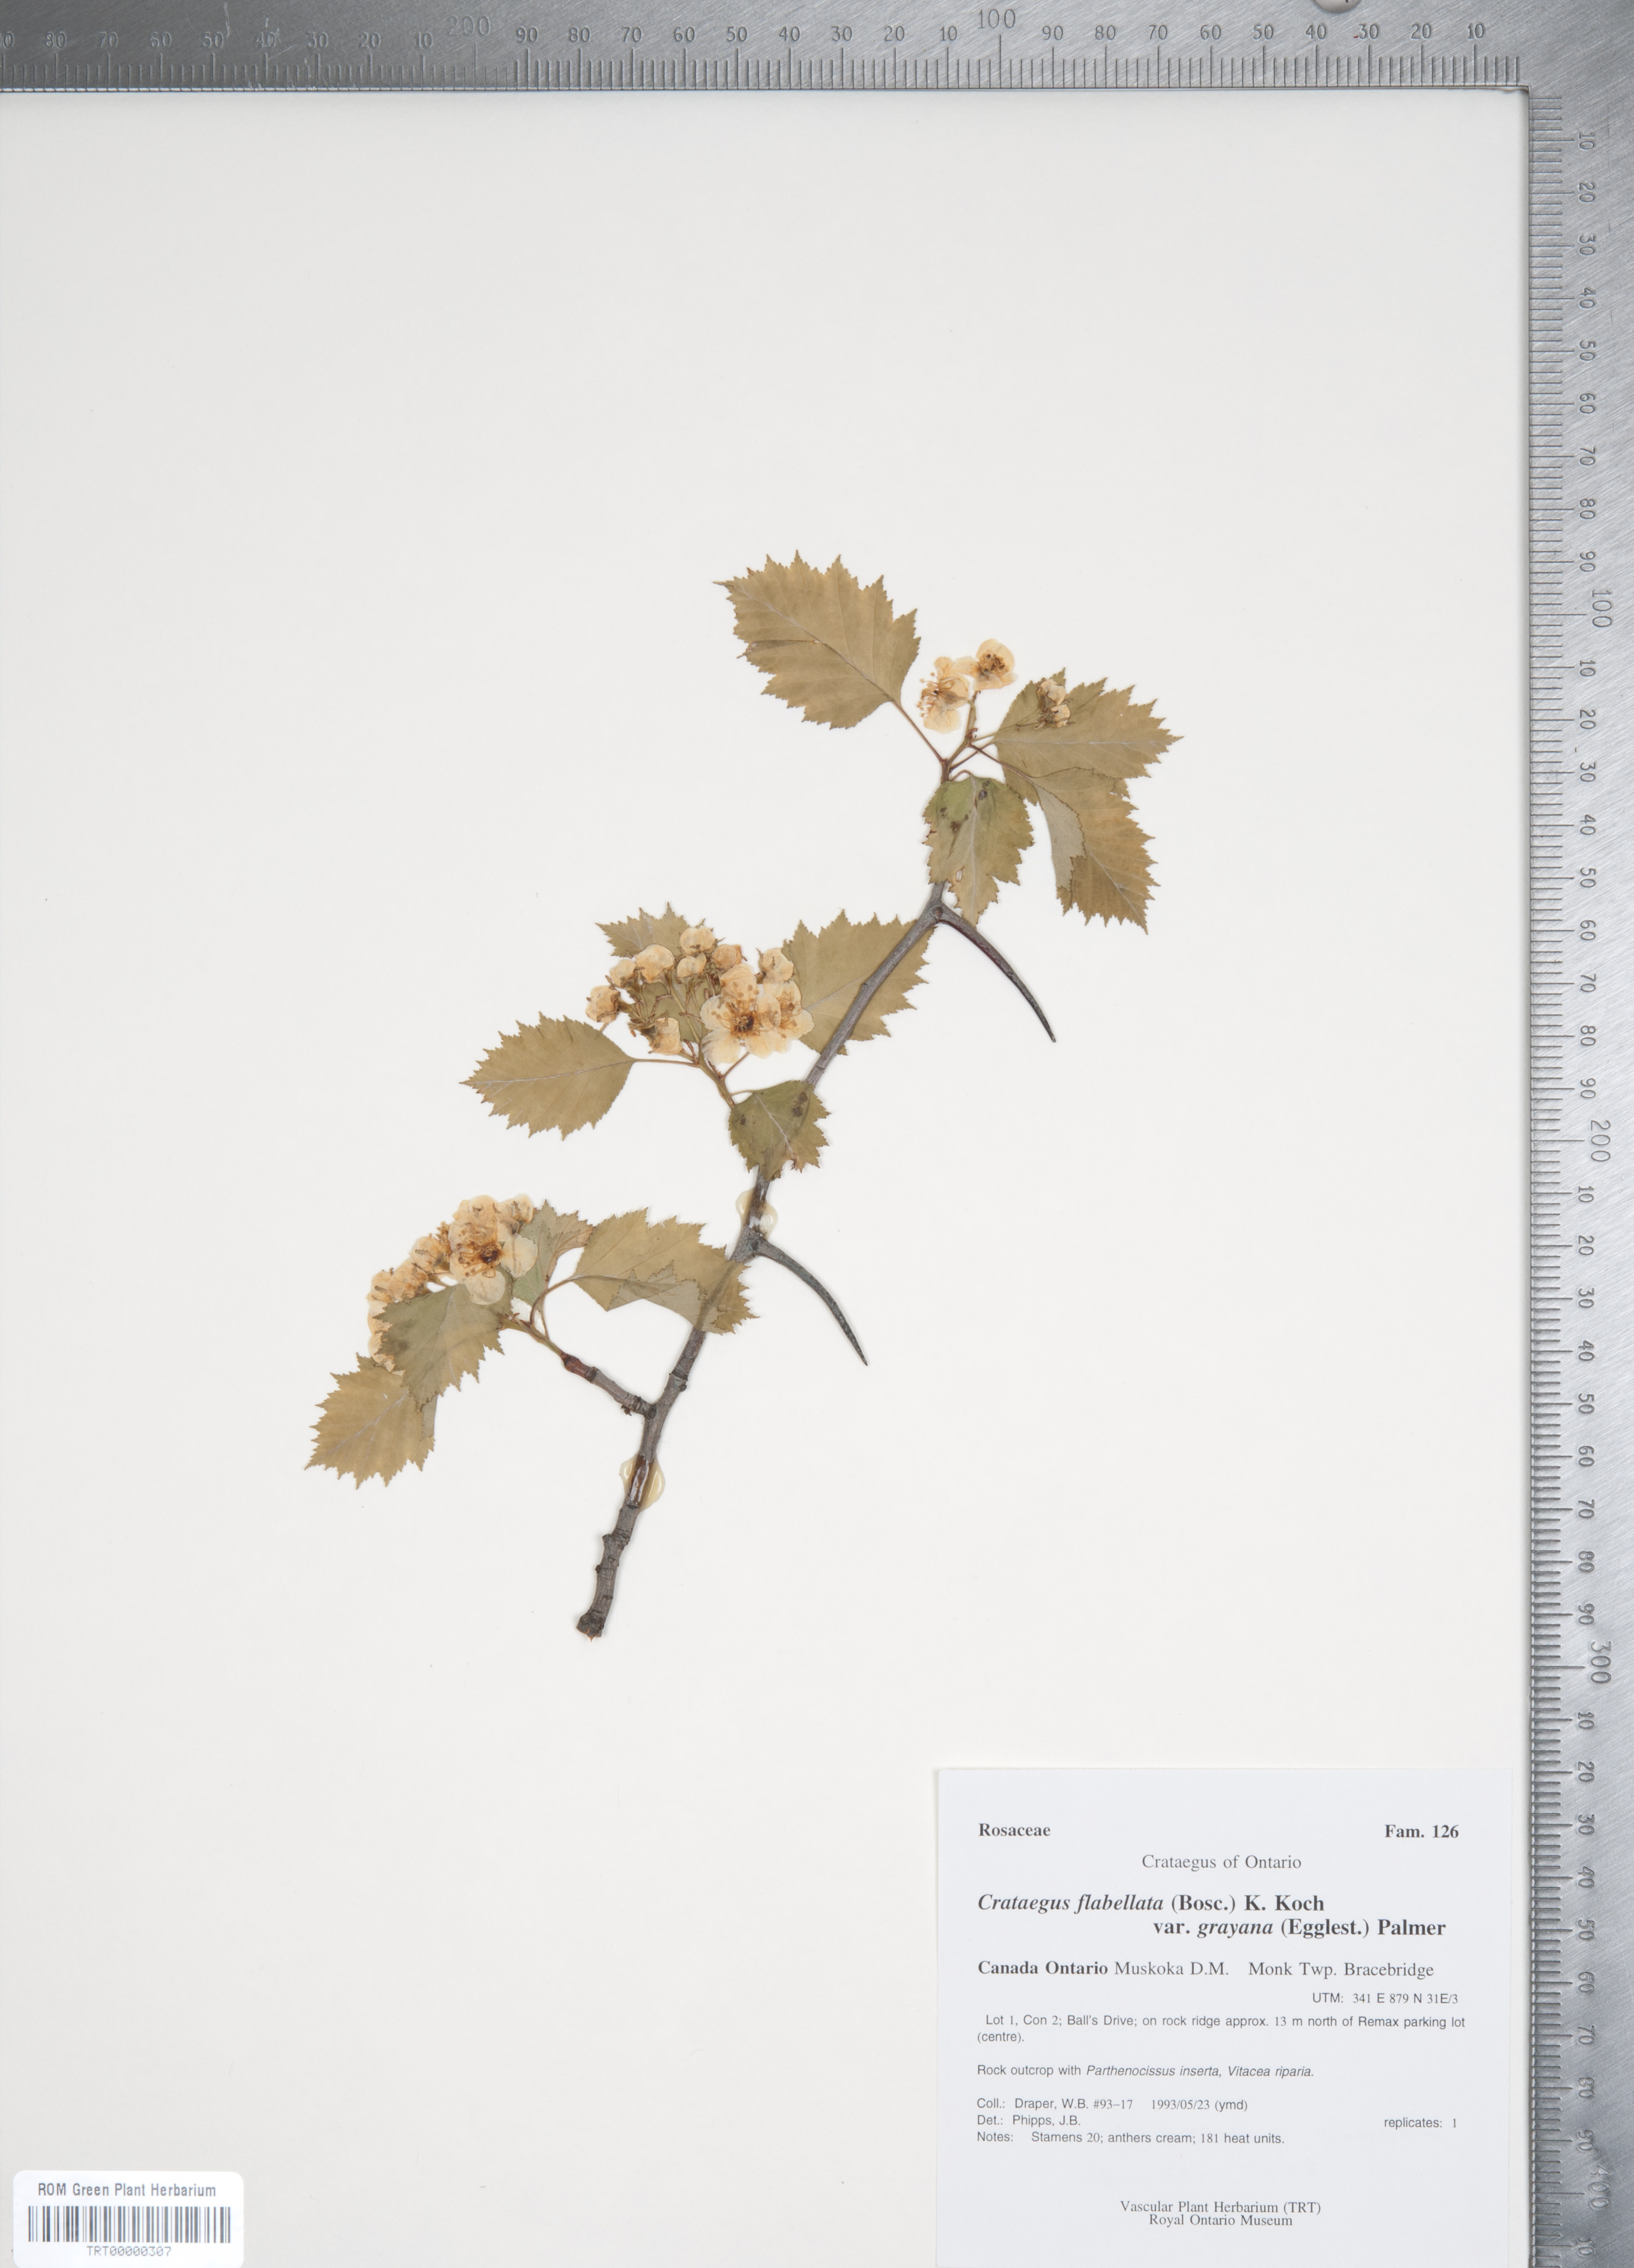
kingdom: Plantae
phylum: Tracheophyta
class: Magnoliopsida
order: Rosales
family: Rosaceae
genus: Crataegus
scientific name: Crataegus flabellata
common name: Bosc's hawthorn
